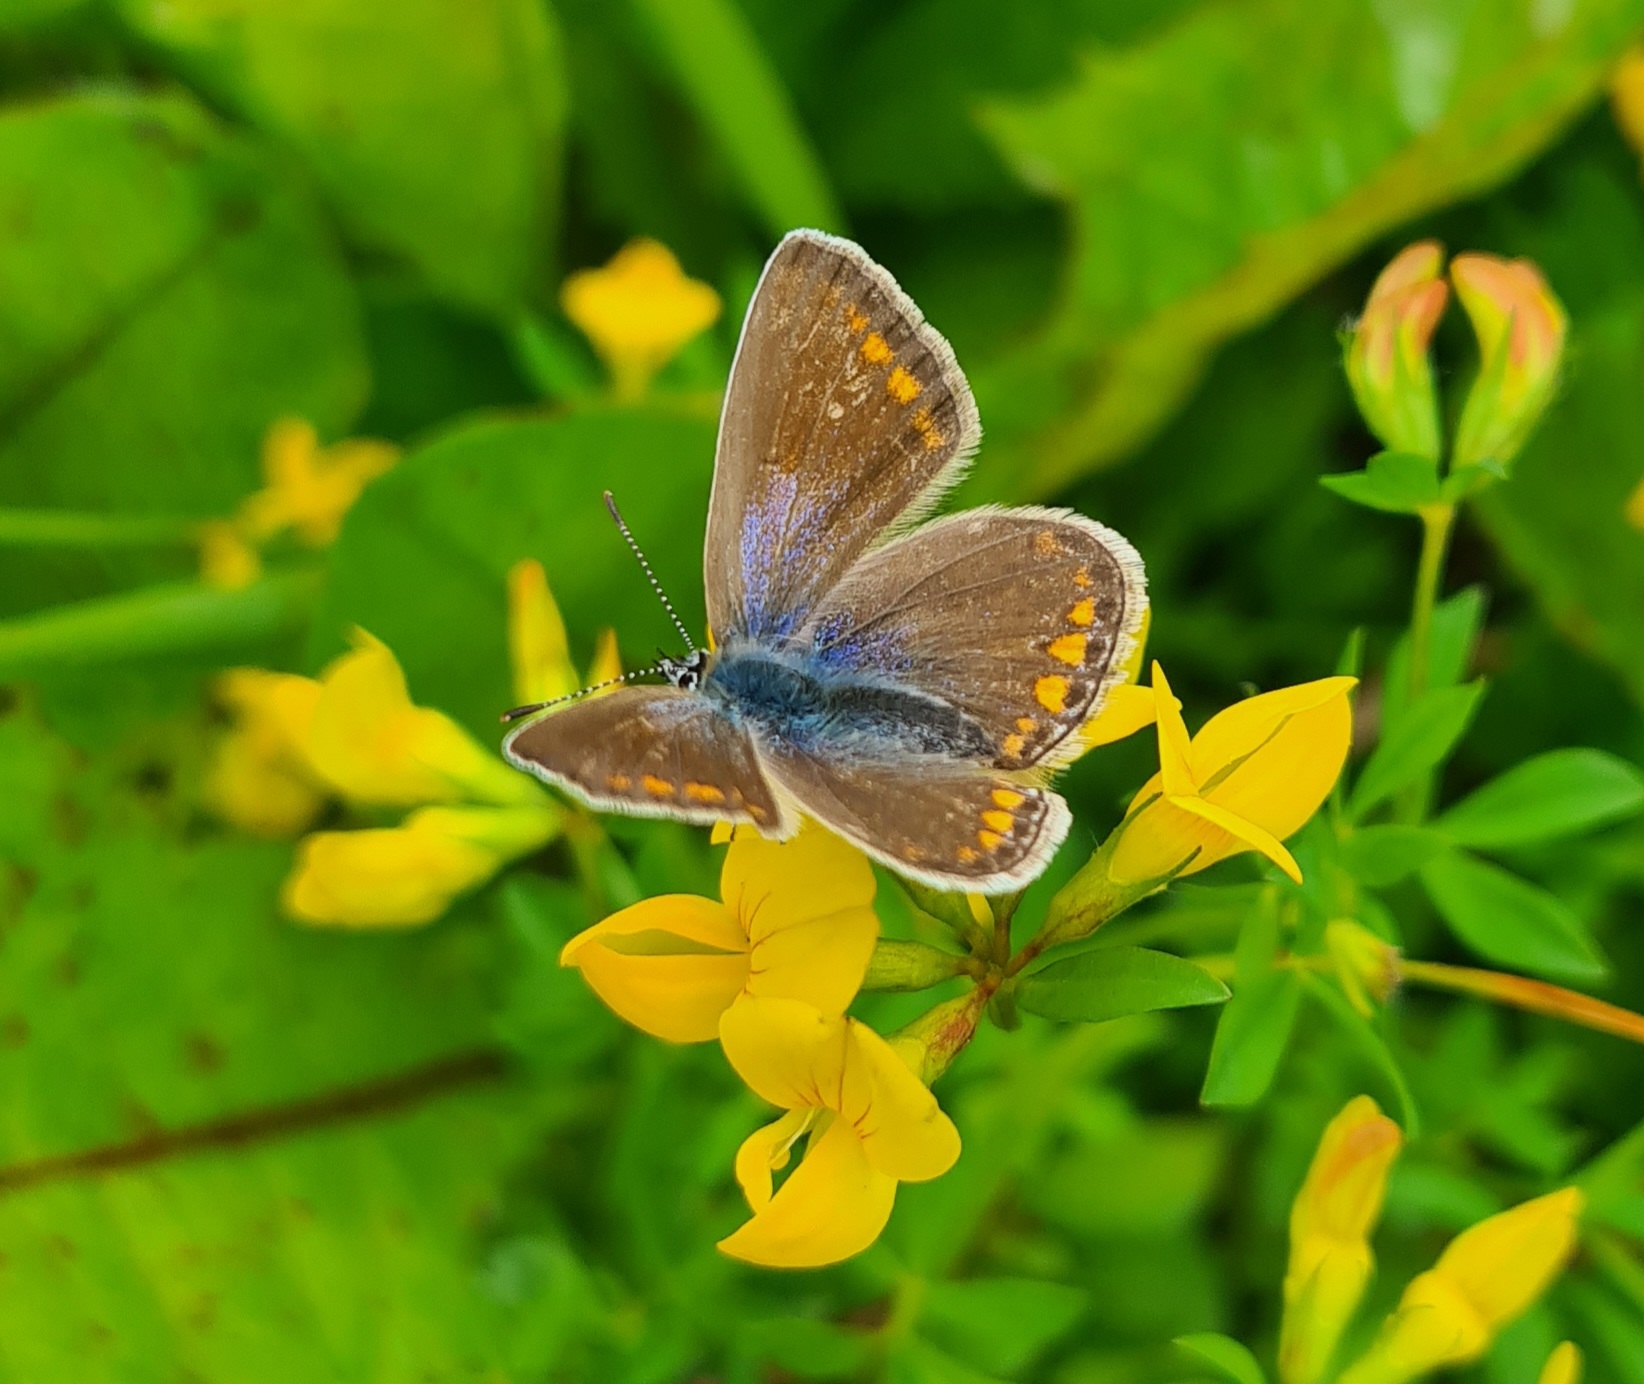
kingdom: Animalia
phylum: Arthropoda
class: Insecta
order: Lepidoptera
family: Lycaenidae
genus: Polyommatus
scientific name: Polyommatus icarus
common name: Almindelig blåfugl
